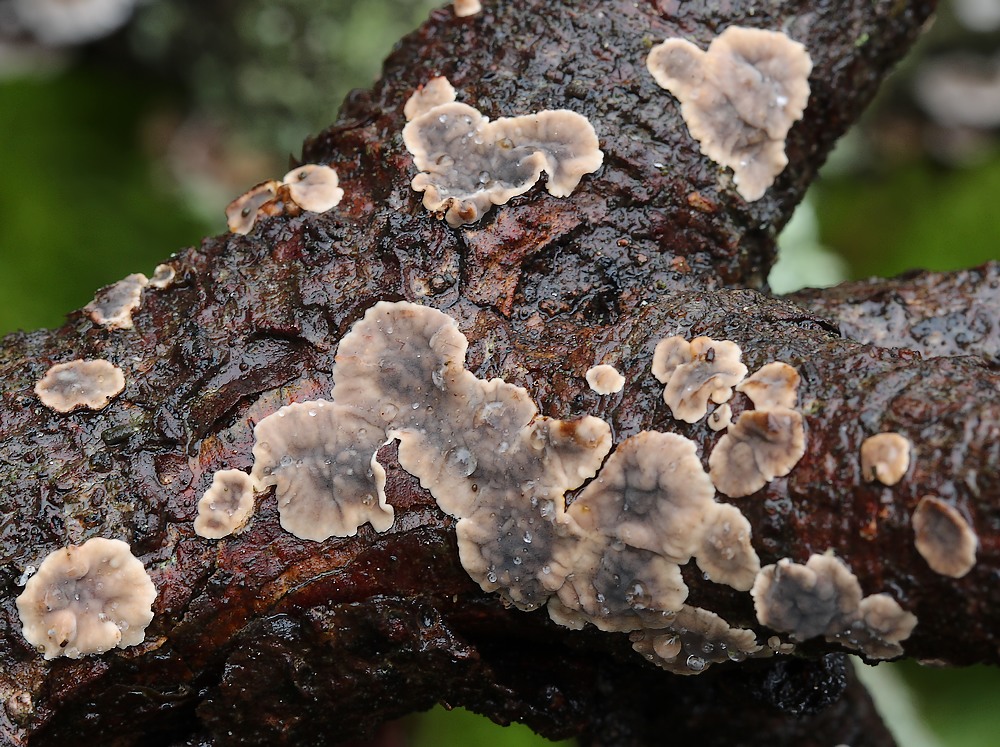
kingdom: Fungi
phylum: Basidiomycota
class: Agaricomycetes
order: Russulales
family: Stereaceae
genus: Stereum
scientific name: Stereum sanguinolentum
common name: blødende lædersvamp
